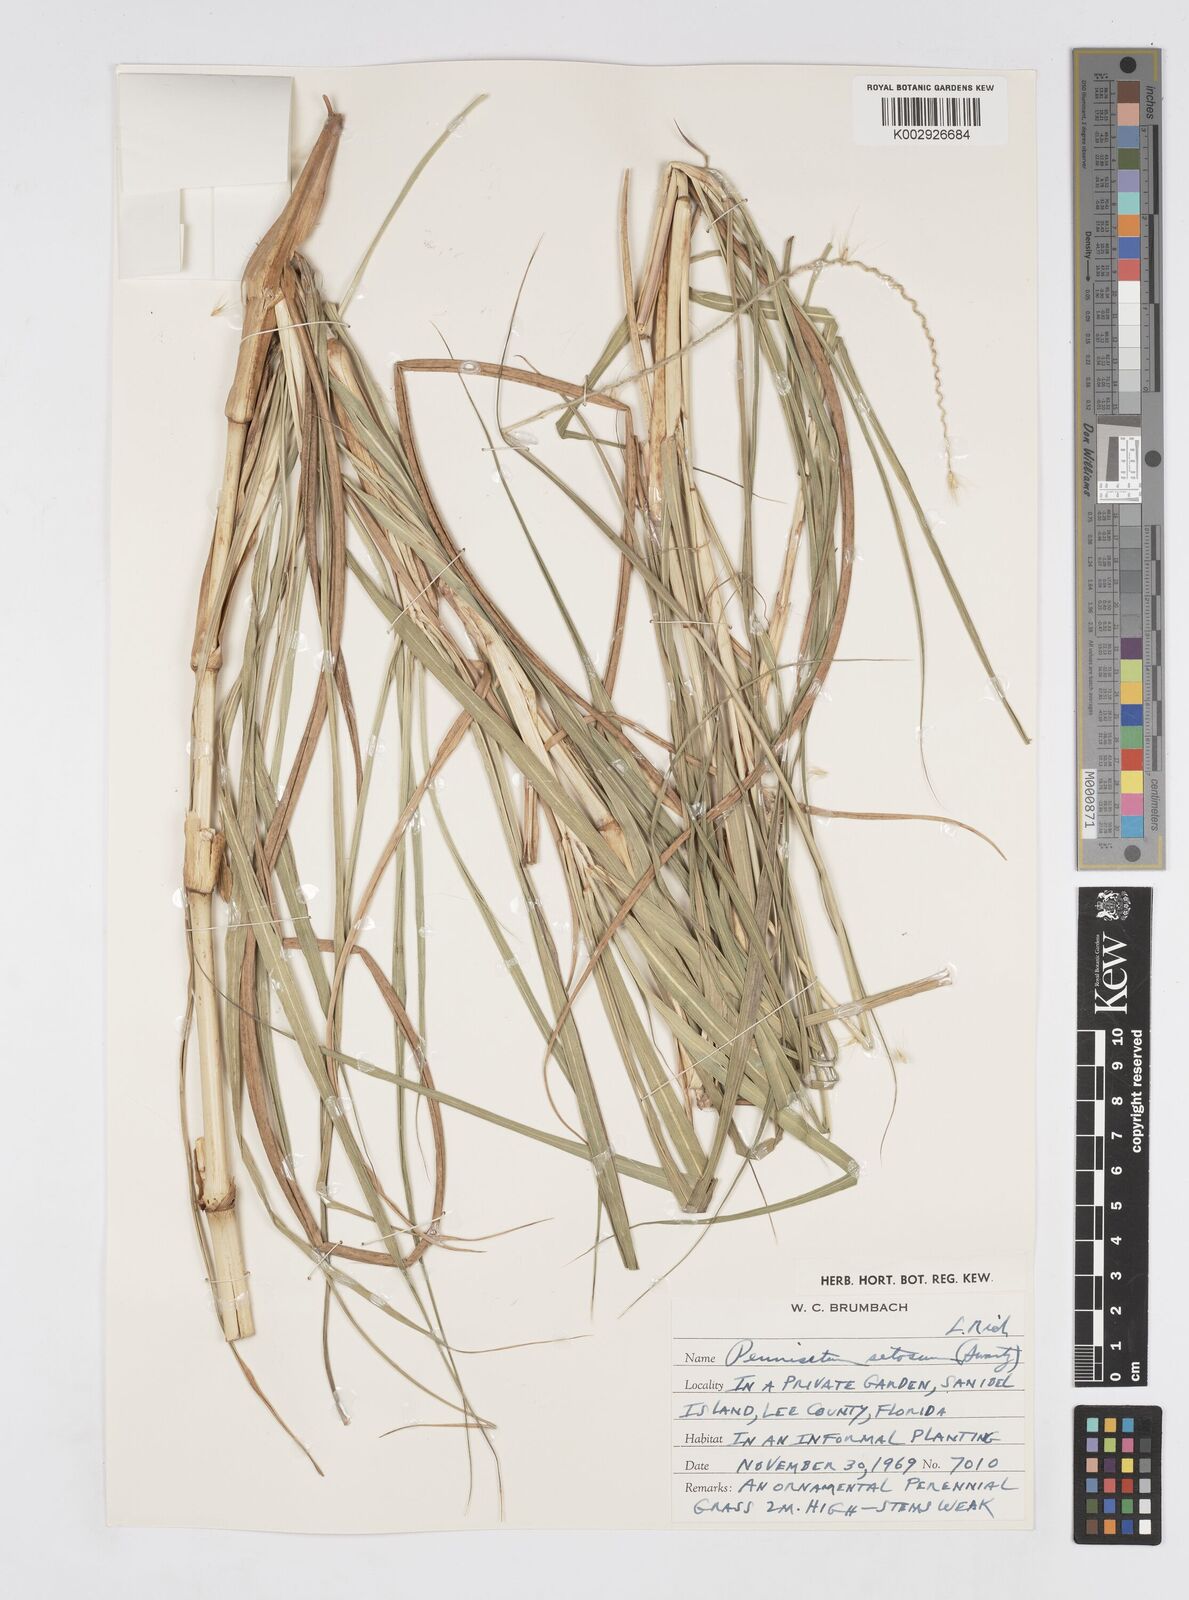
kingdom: Plantae
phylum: Tracheophyta
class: Liliopsida
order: Poales
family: Poaceae
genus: Cenchrus
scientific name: Cenchrus purpureus
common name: Elephant grass
